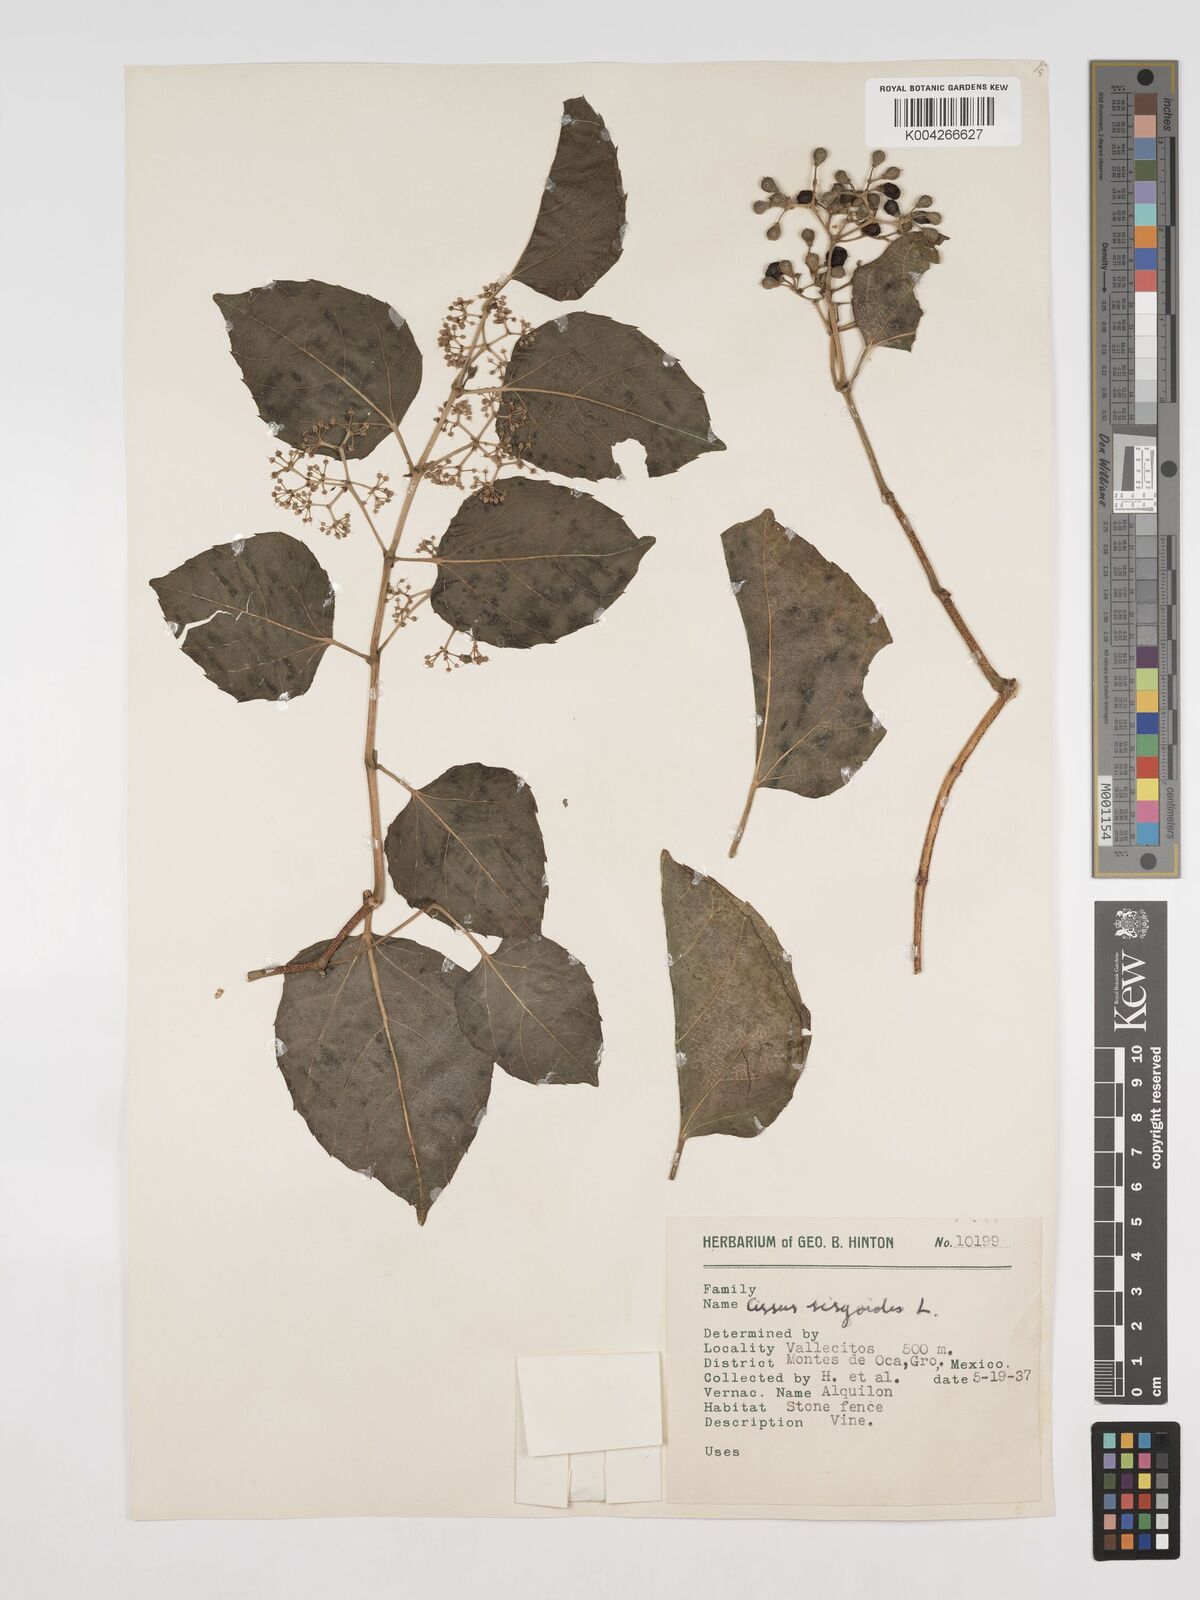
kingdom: Plantae
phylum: Tracheophyta
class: Magnoliopsida
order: Vitales
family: Vitaceae
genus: Cissus
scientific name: Cissus
